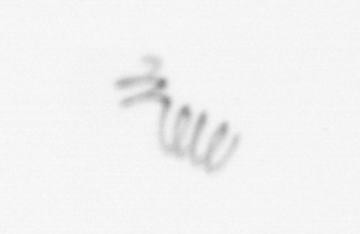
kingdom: Chromista
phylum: Ochrophyta
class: Bacillariophyceae
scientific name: Bacillariophyceae
